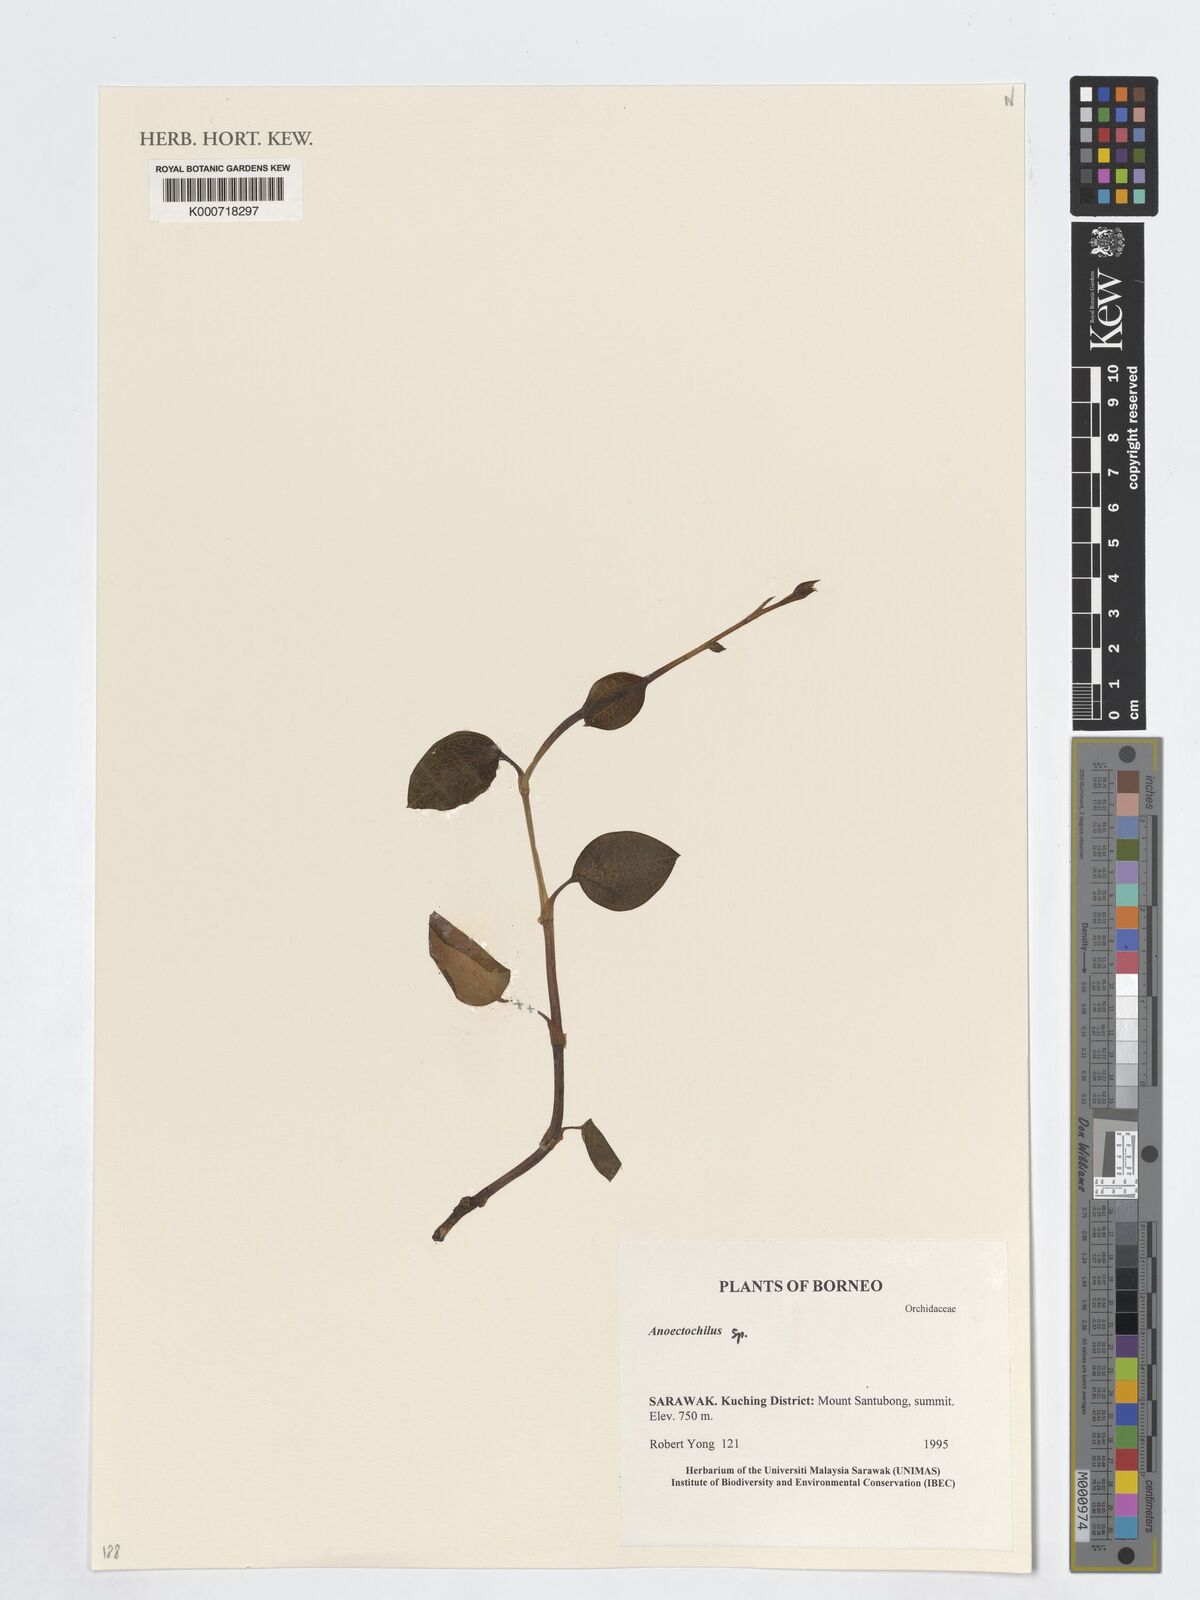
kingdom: Plantae
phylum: Tracheophyta
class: Liliopsida
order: Asparagales
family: Orchidaceae
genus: Anoectochilus
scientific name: Anoectochilus
